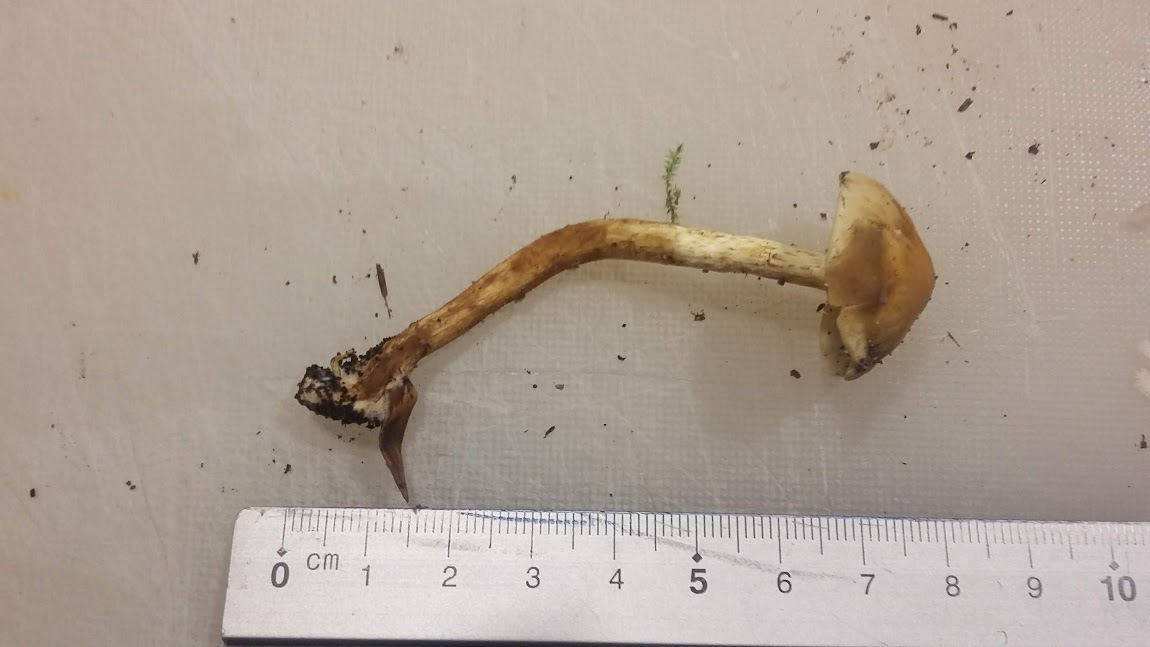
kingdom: Fungi
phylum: Basidiomycota
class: Agaricomycetes
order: Agaricales
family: Strophariaceae
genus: Hypholoma
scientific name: Hypholoma fasciculare
